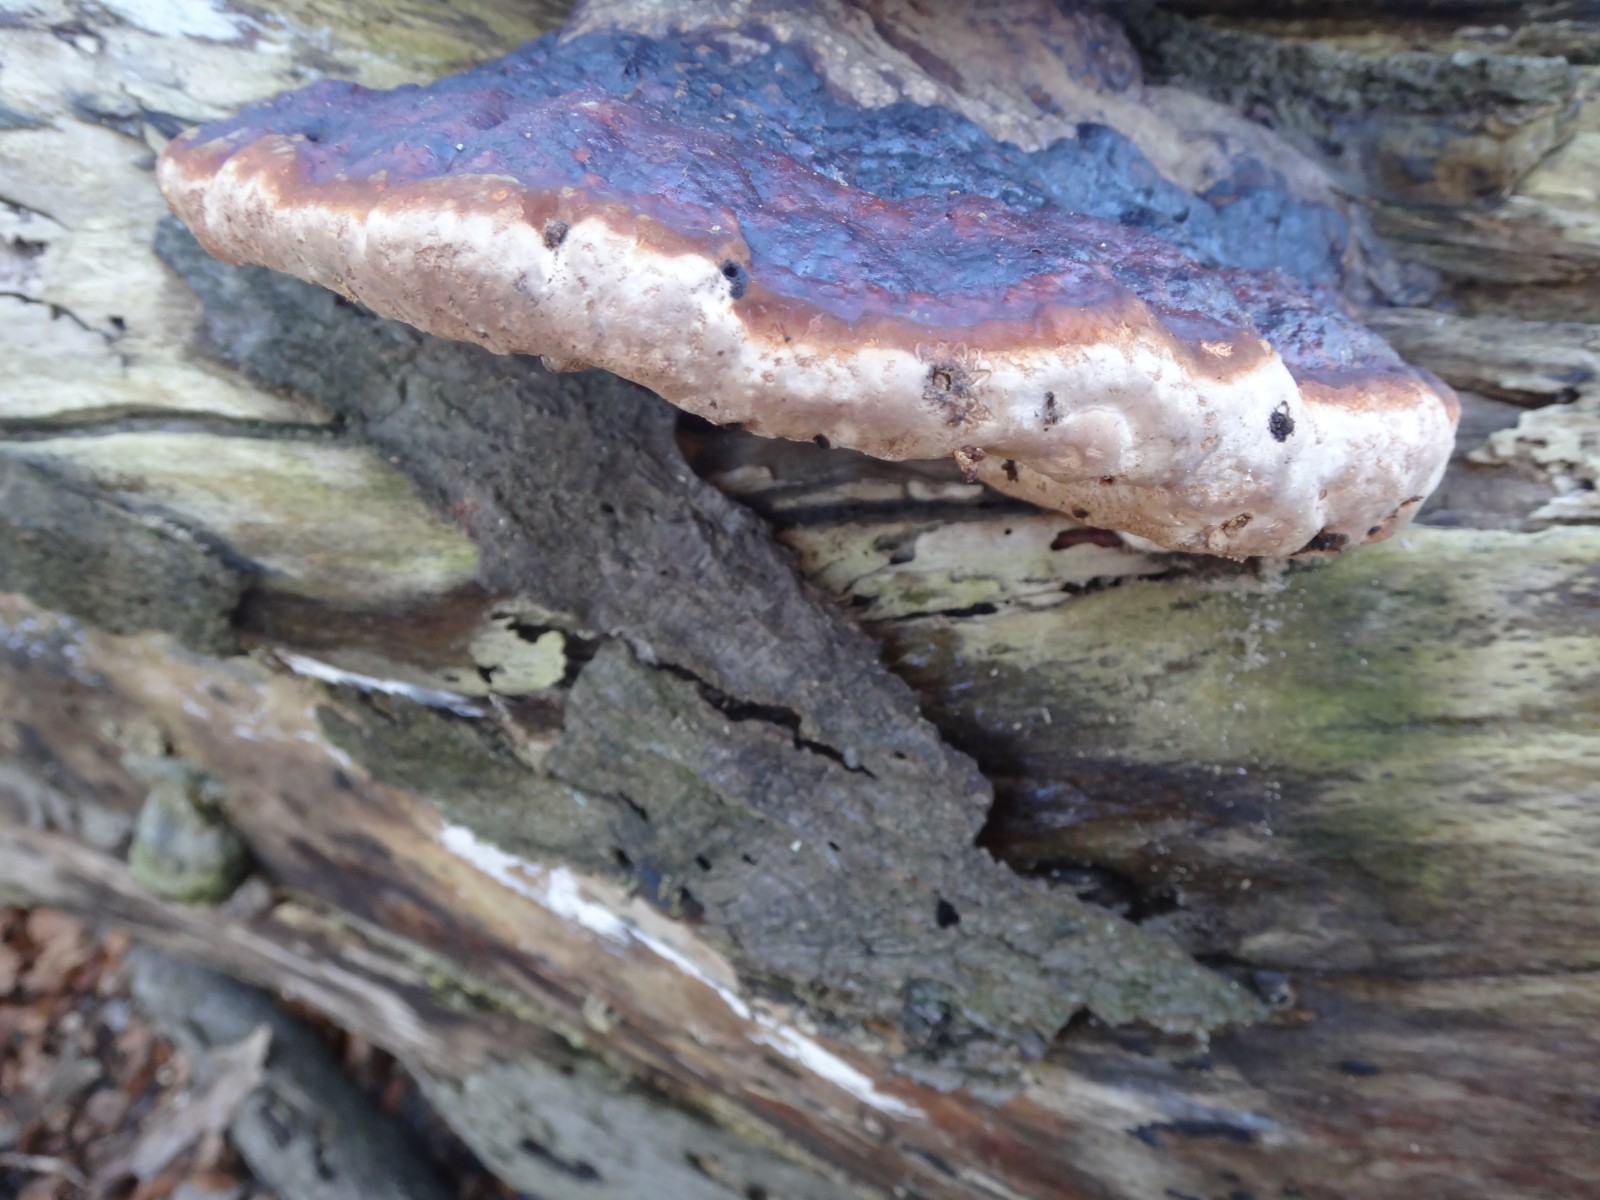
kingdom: Fungi
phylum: Basidiomycota
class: Agaricomycetes
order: Polyporales
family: Fomitopsidaceae
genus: Fomitopsis
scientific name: Fomitopsis pinicola
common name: randbæltet hovporesvamp
